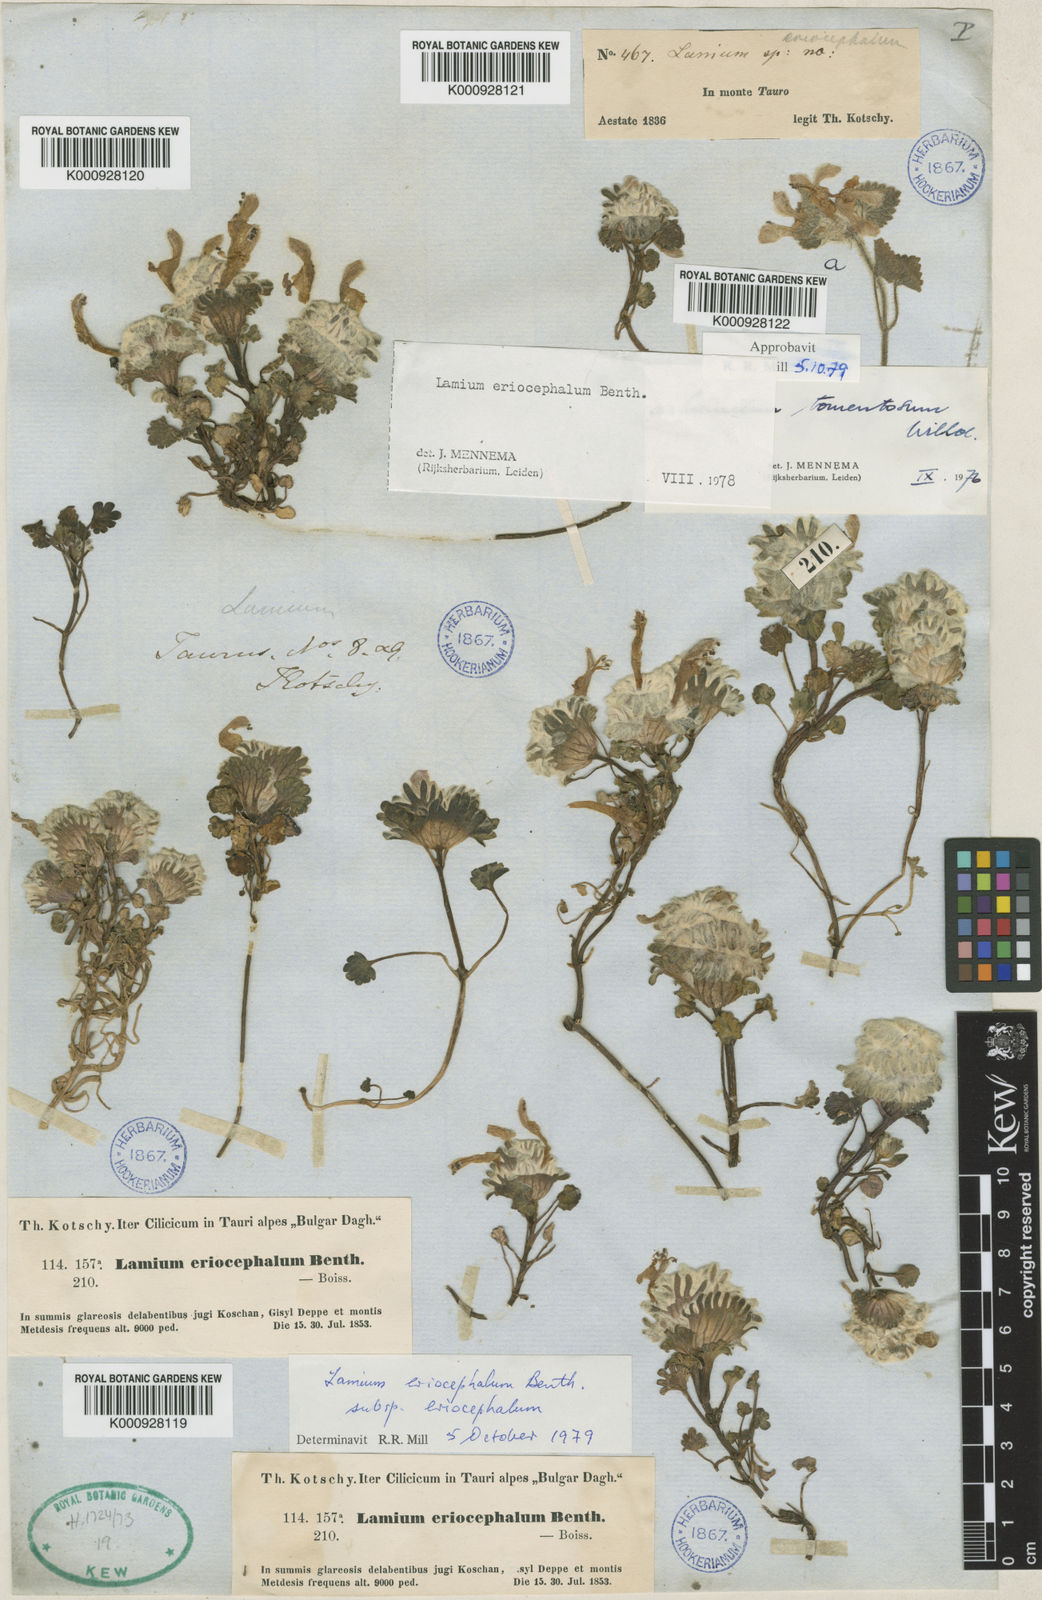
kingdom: Plantae
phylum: Tracheophyta
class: Magnoliopsida
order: Lamiales
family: Lamiaceae
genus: Lamium
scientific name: Lamium eriocephalum
